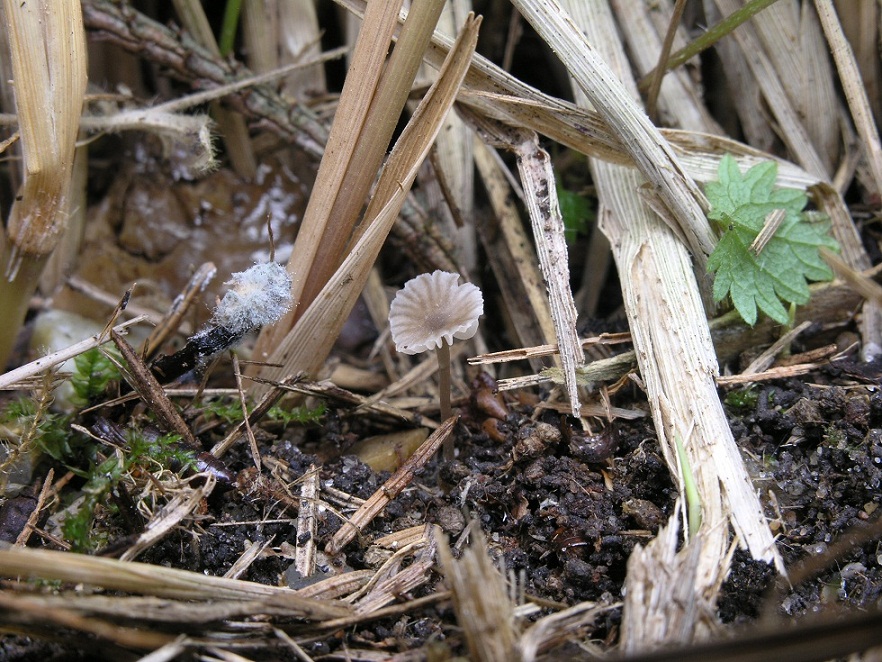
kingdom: Fungi
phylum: Basidiomycota
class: Agaricomycetes
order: Agaricales
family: Entolomataceae
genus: Entoloma
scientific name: Entoloma minutum
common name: liden rødblad
